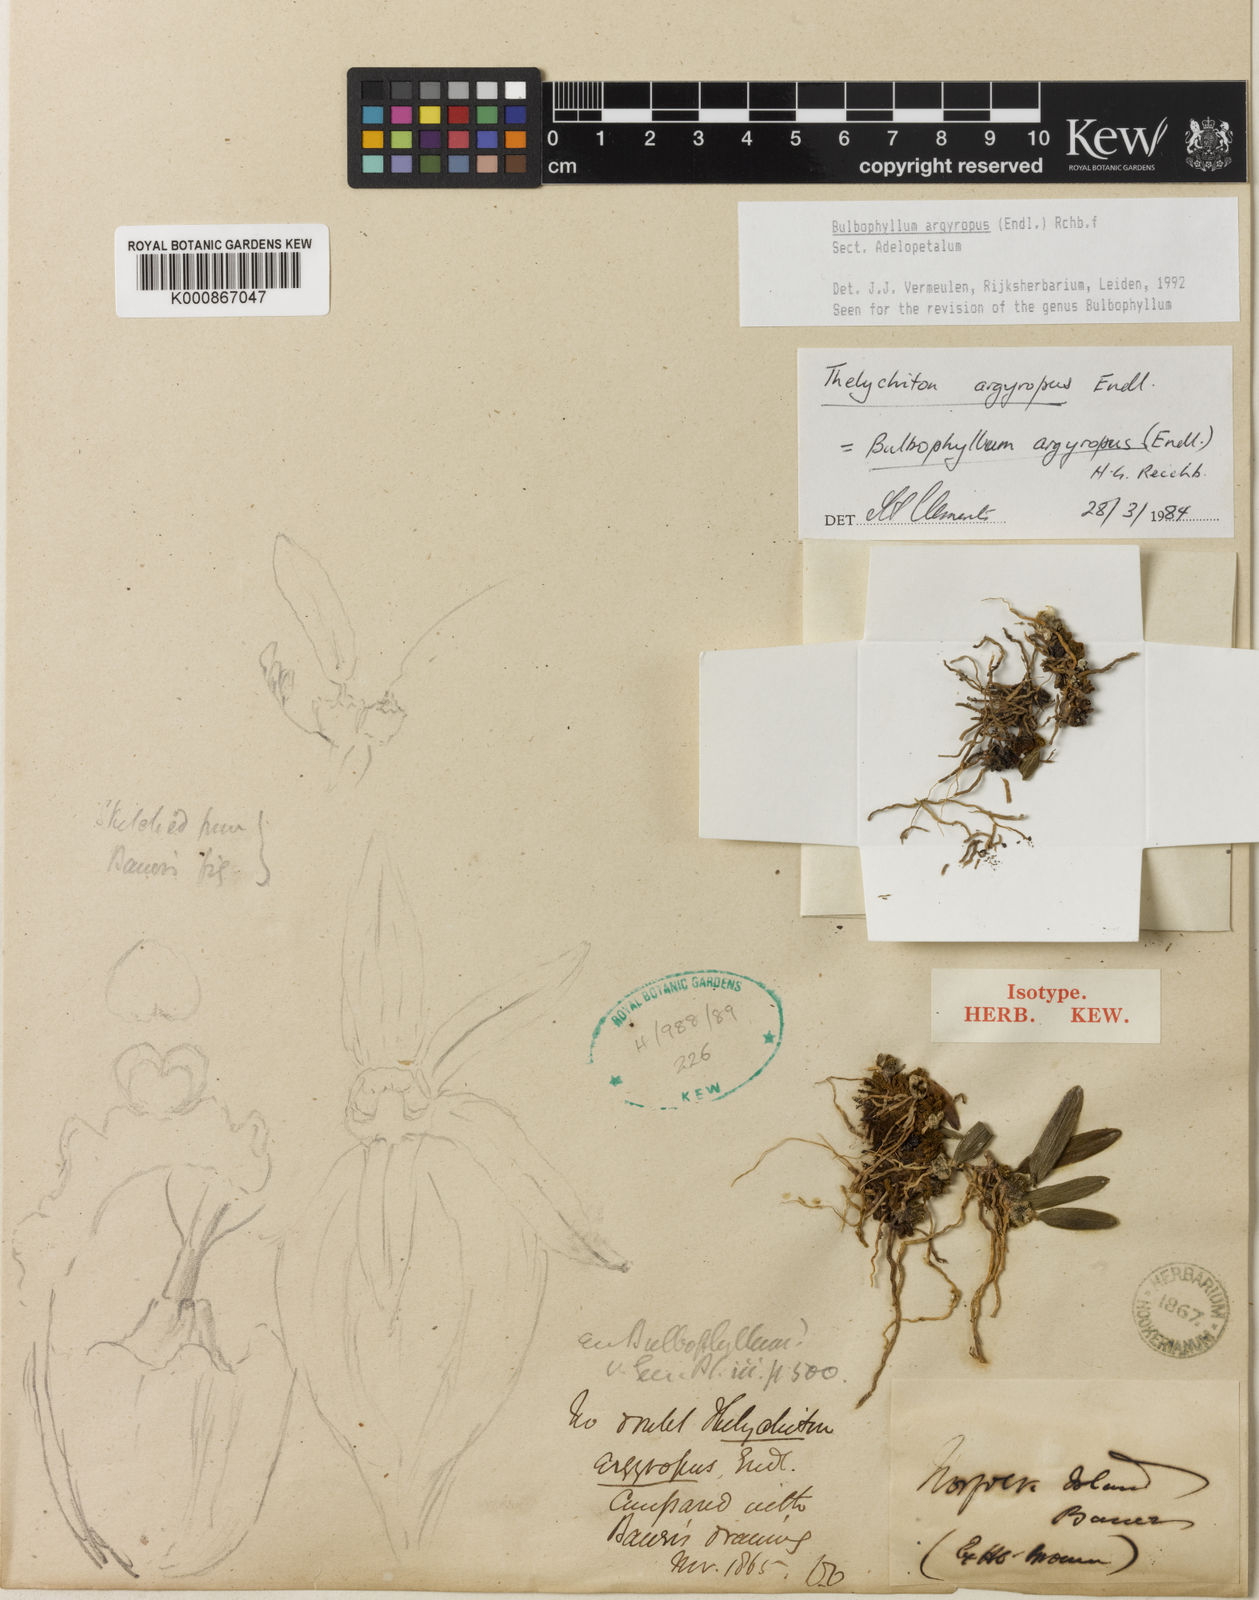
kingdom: Plantae
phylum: Tracheophyta
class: Liliopsida
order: Asparagales
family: Orchidaceae
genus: Bulbophyllum
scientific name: Bulbophyllum
